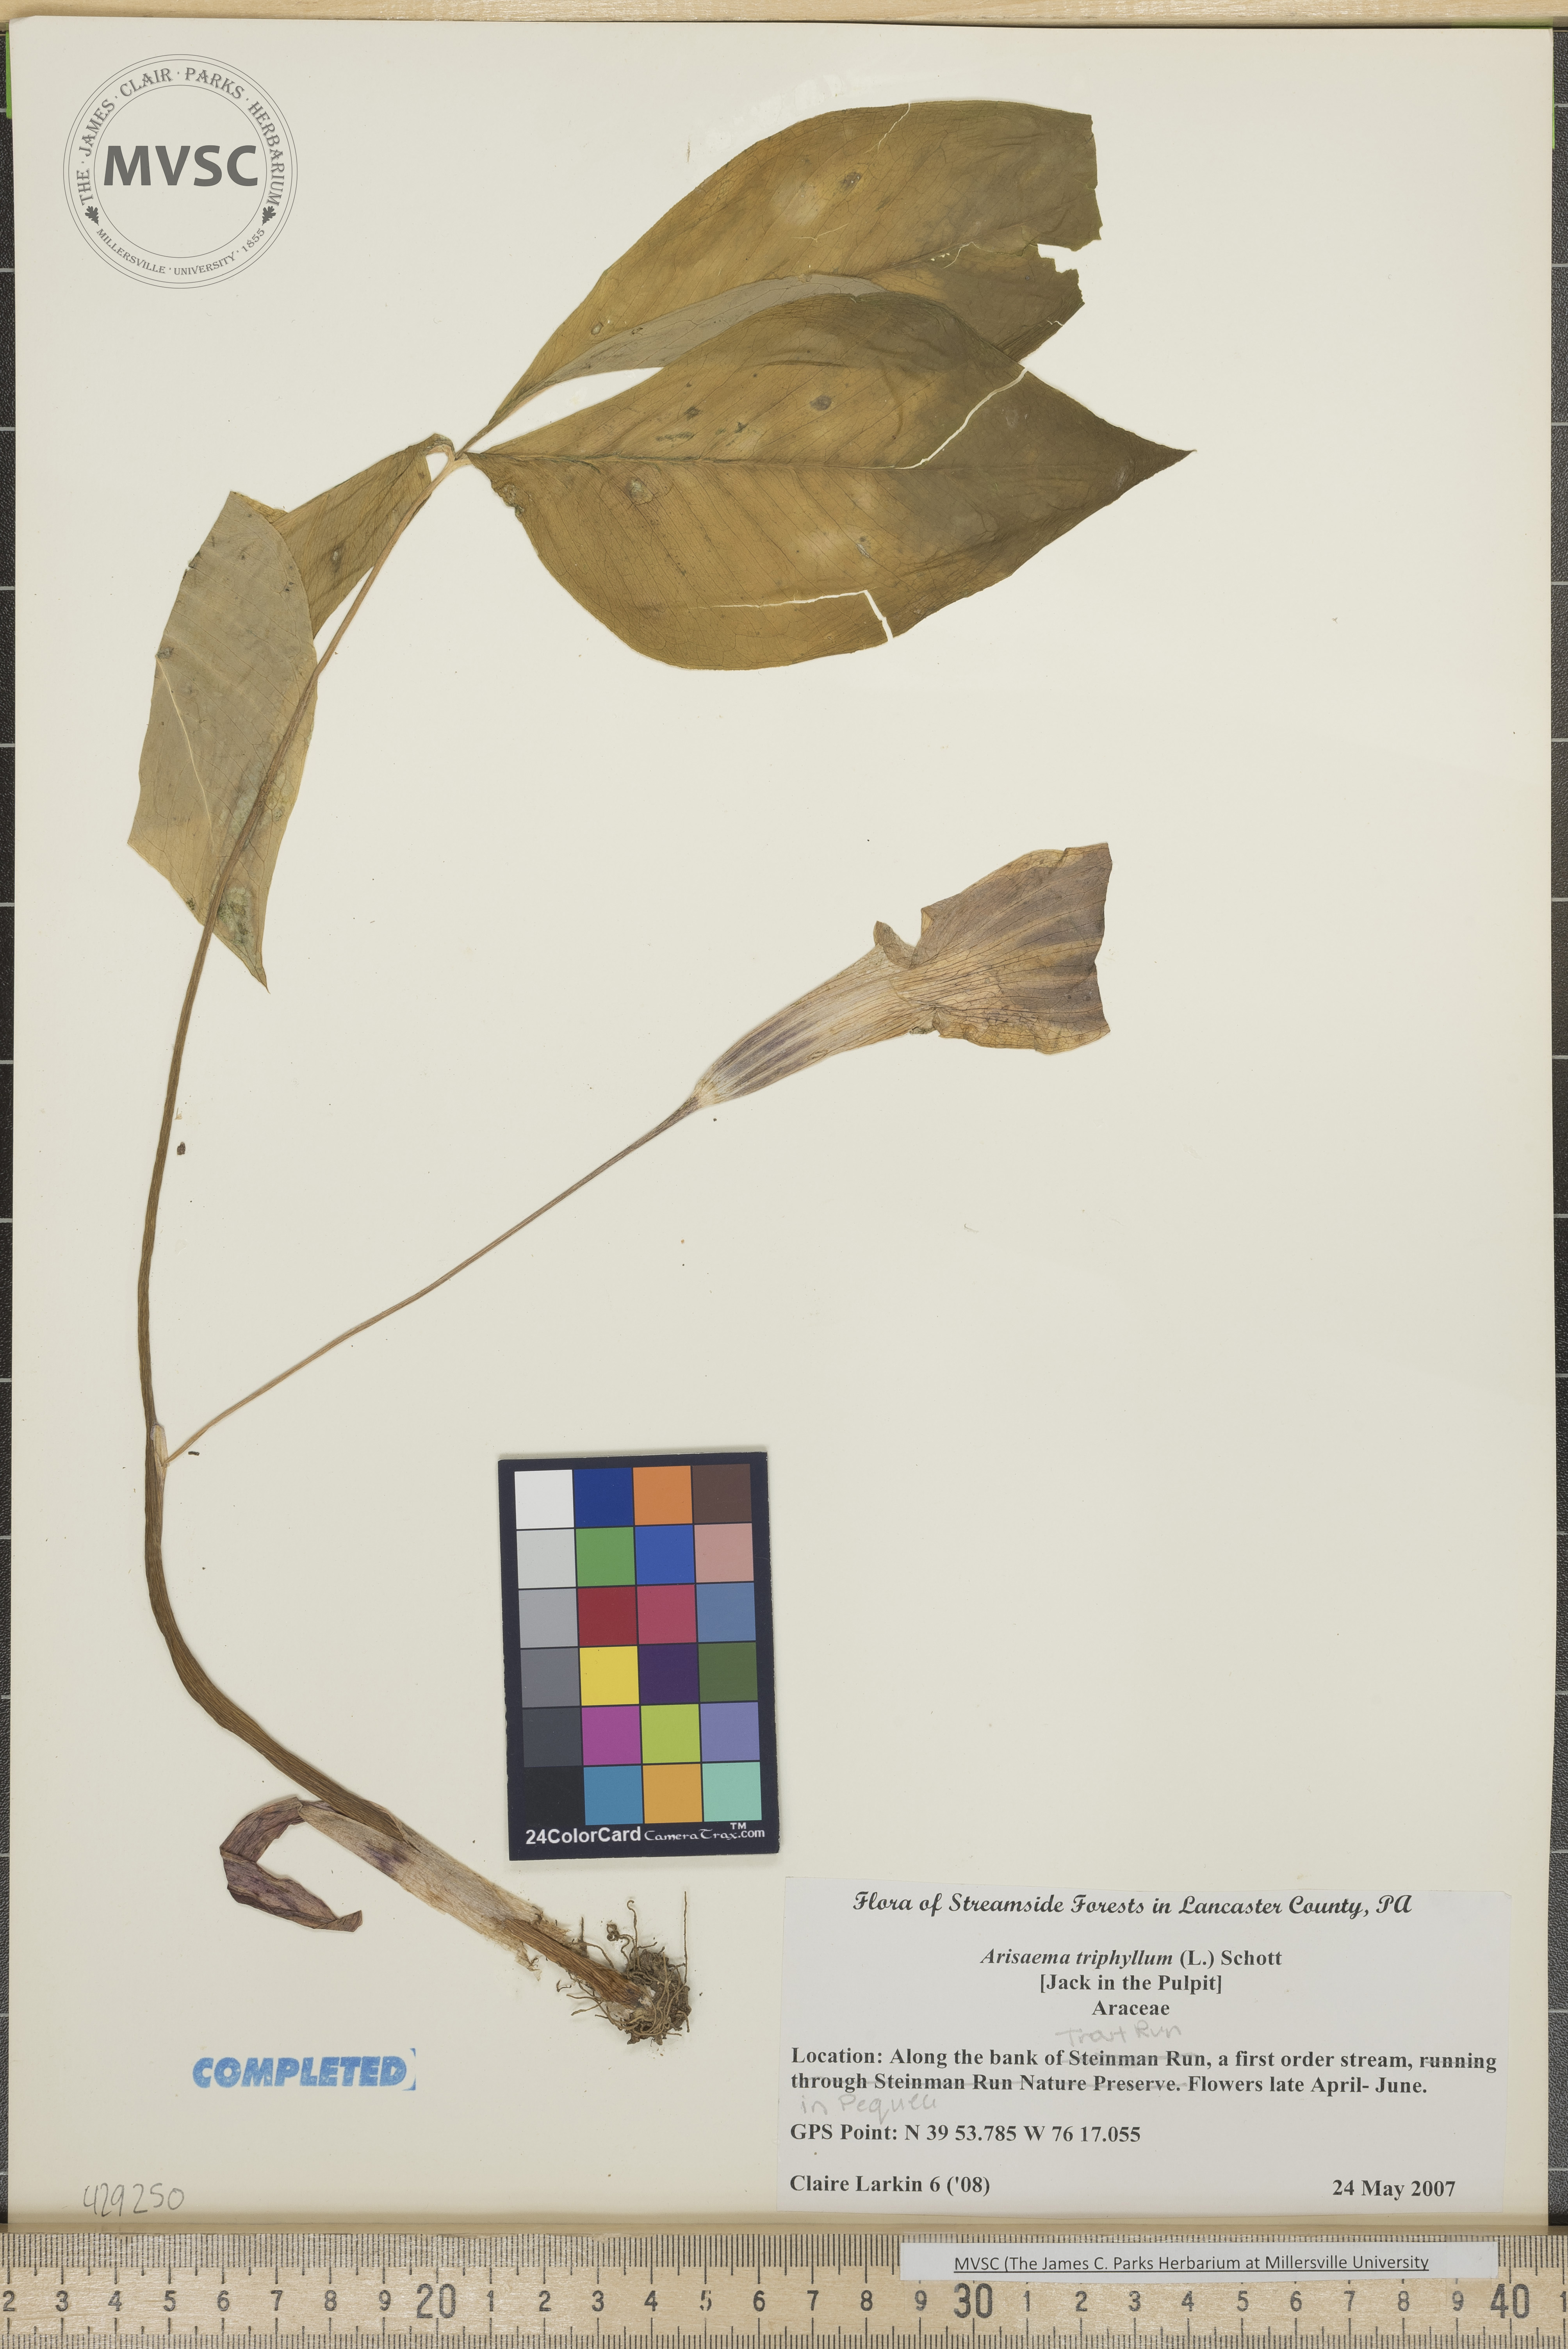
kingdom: Plantae
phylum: Tracheophyta
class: Liliopsida
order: Alismatales
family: Araceae
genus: Arisaema
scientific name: Arisaema triphyllum
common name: Jack in the pulpit
